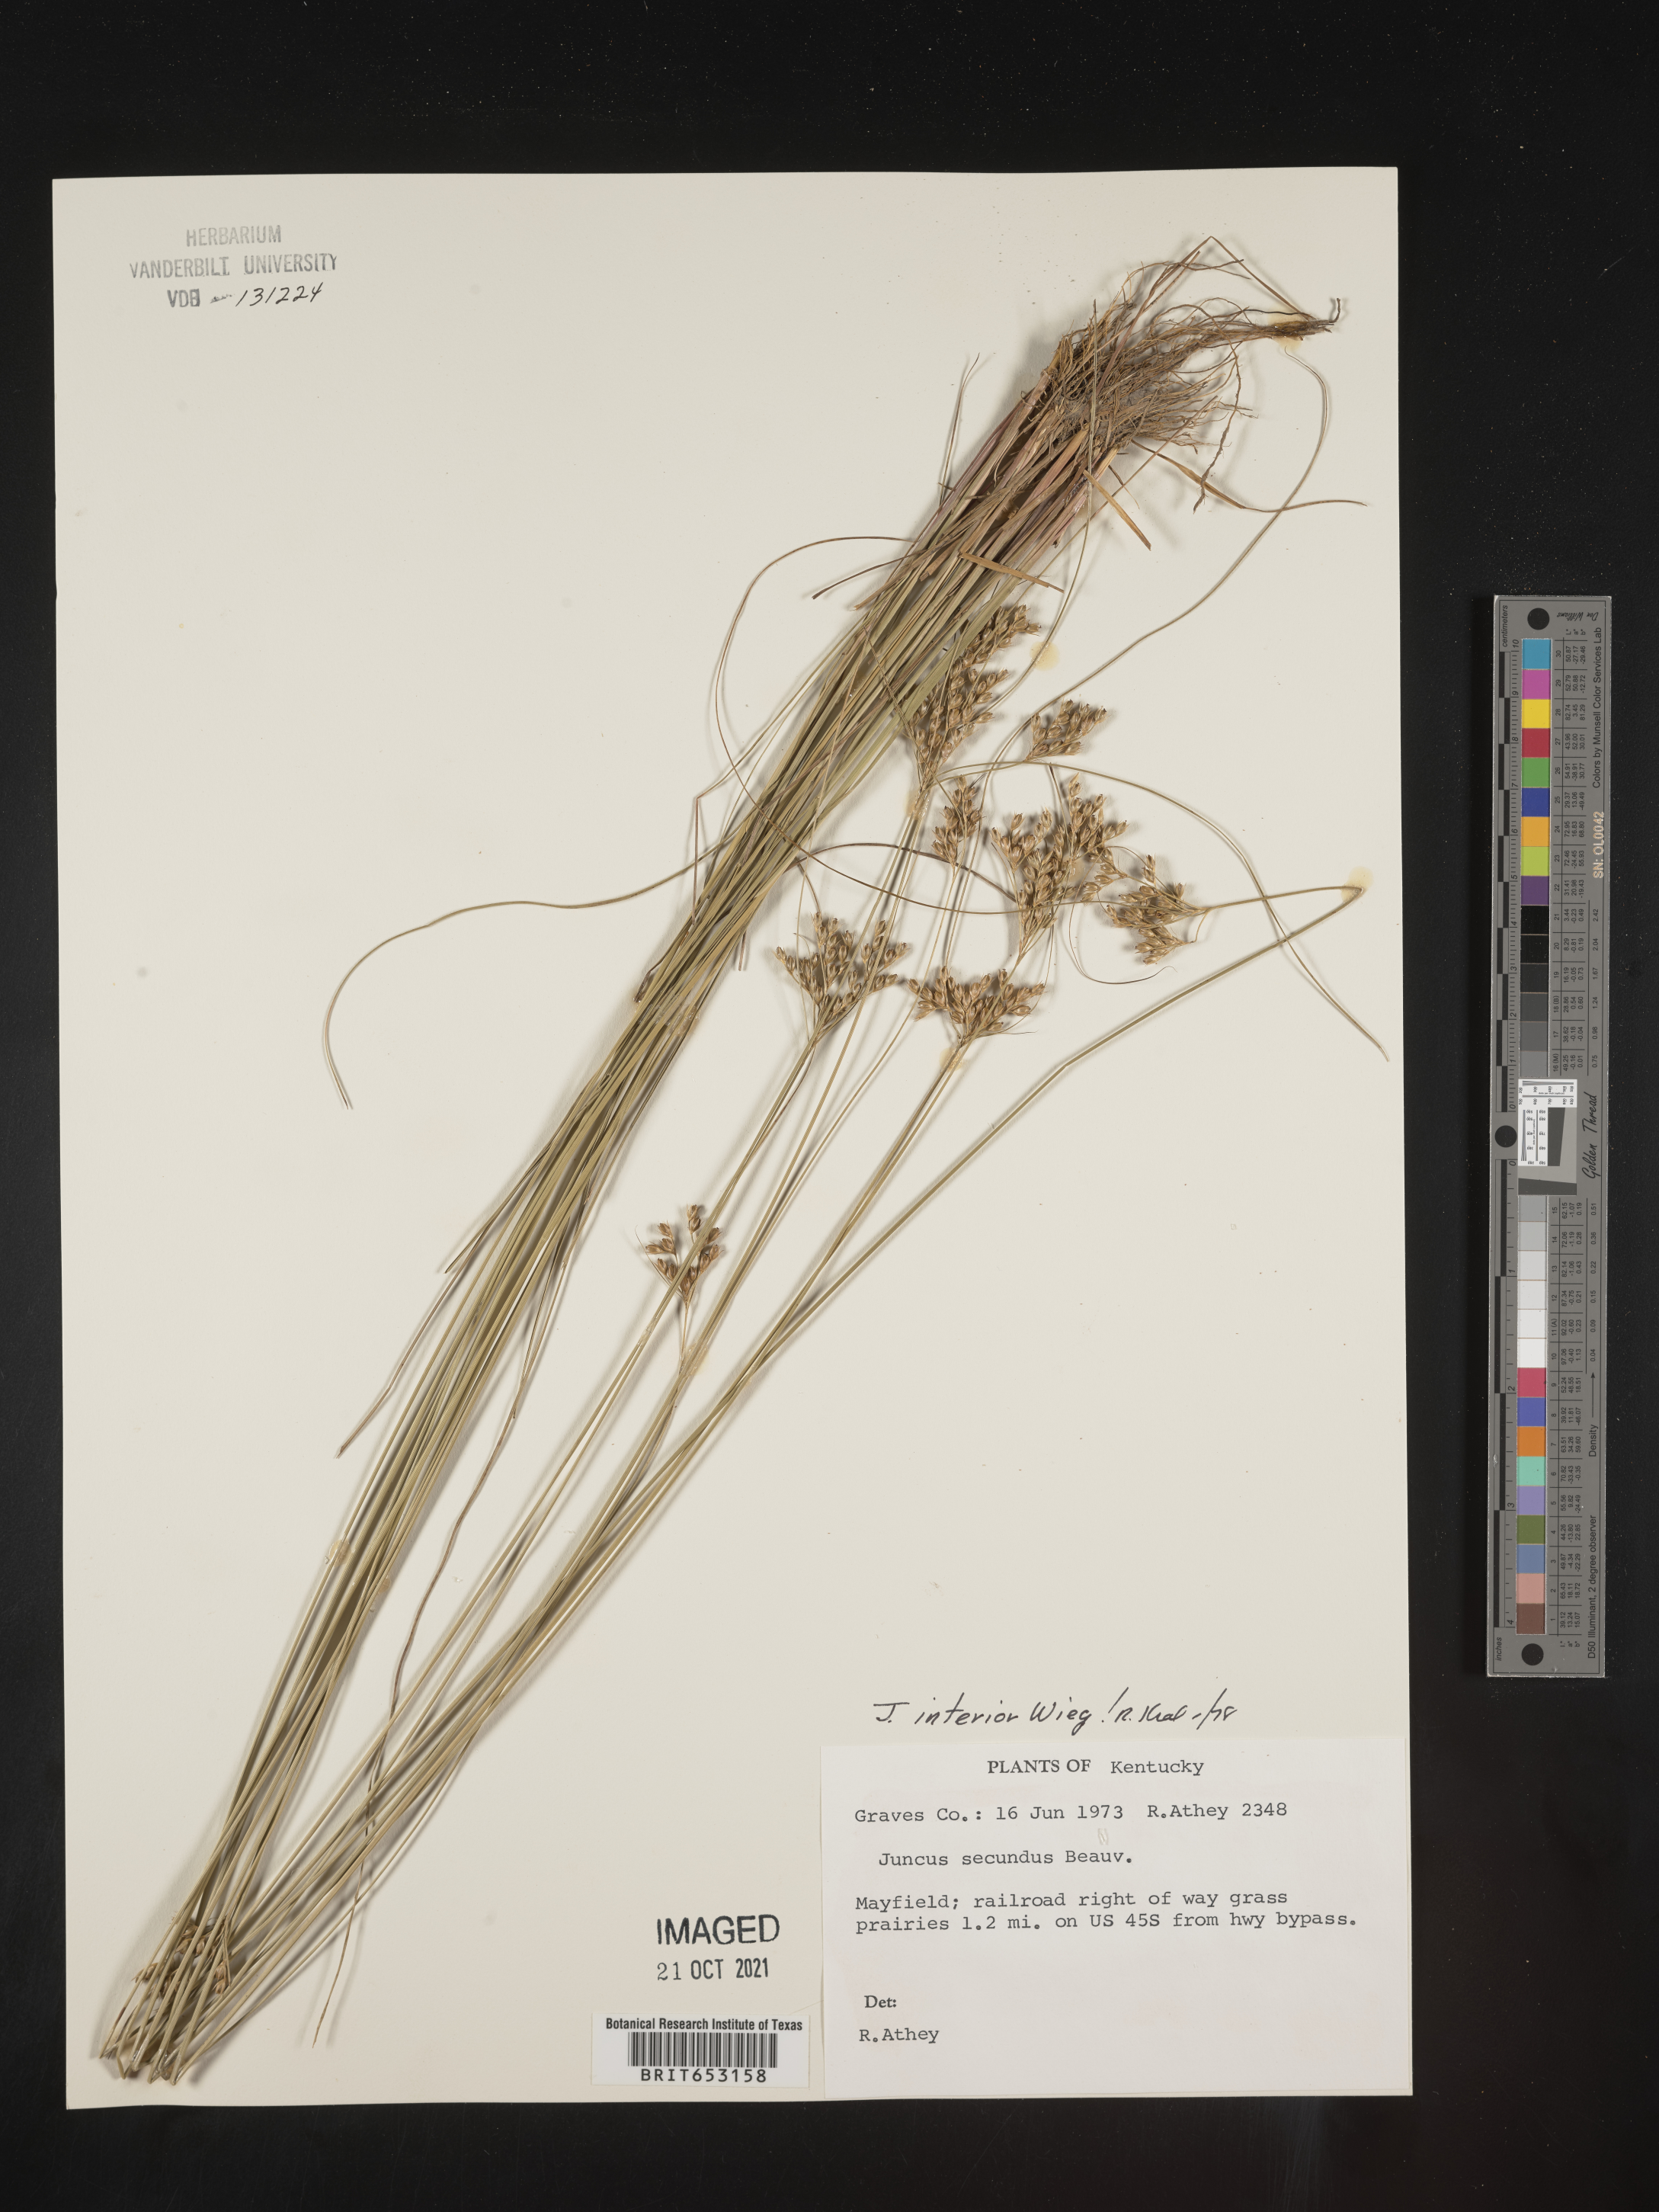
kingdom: Plantae
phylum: Tracheophyta
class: Liliopsida
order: Poales
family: Juncaceae
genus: Juncus
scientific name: Juncus interior
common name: Interior rush
